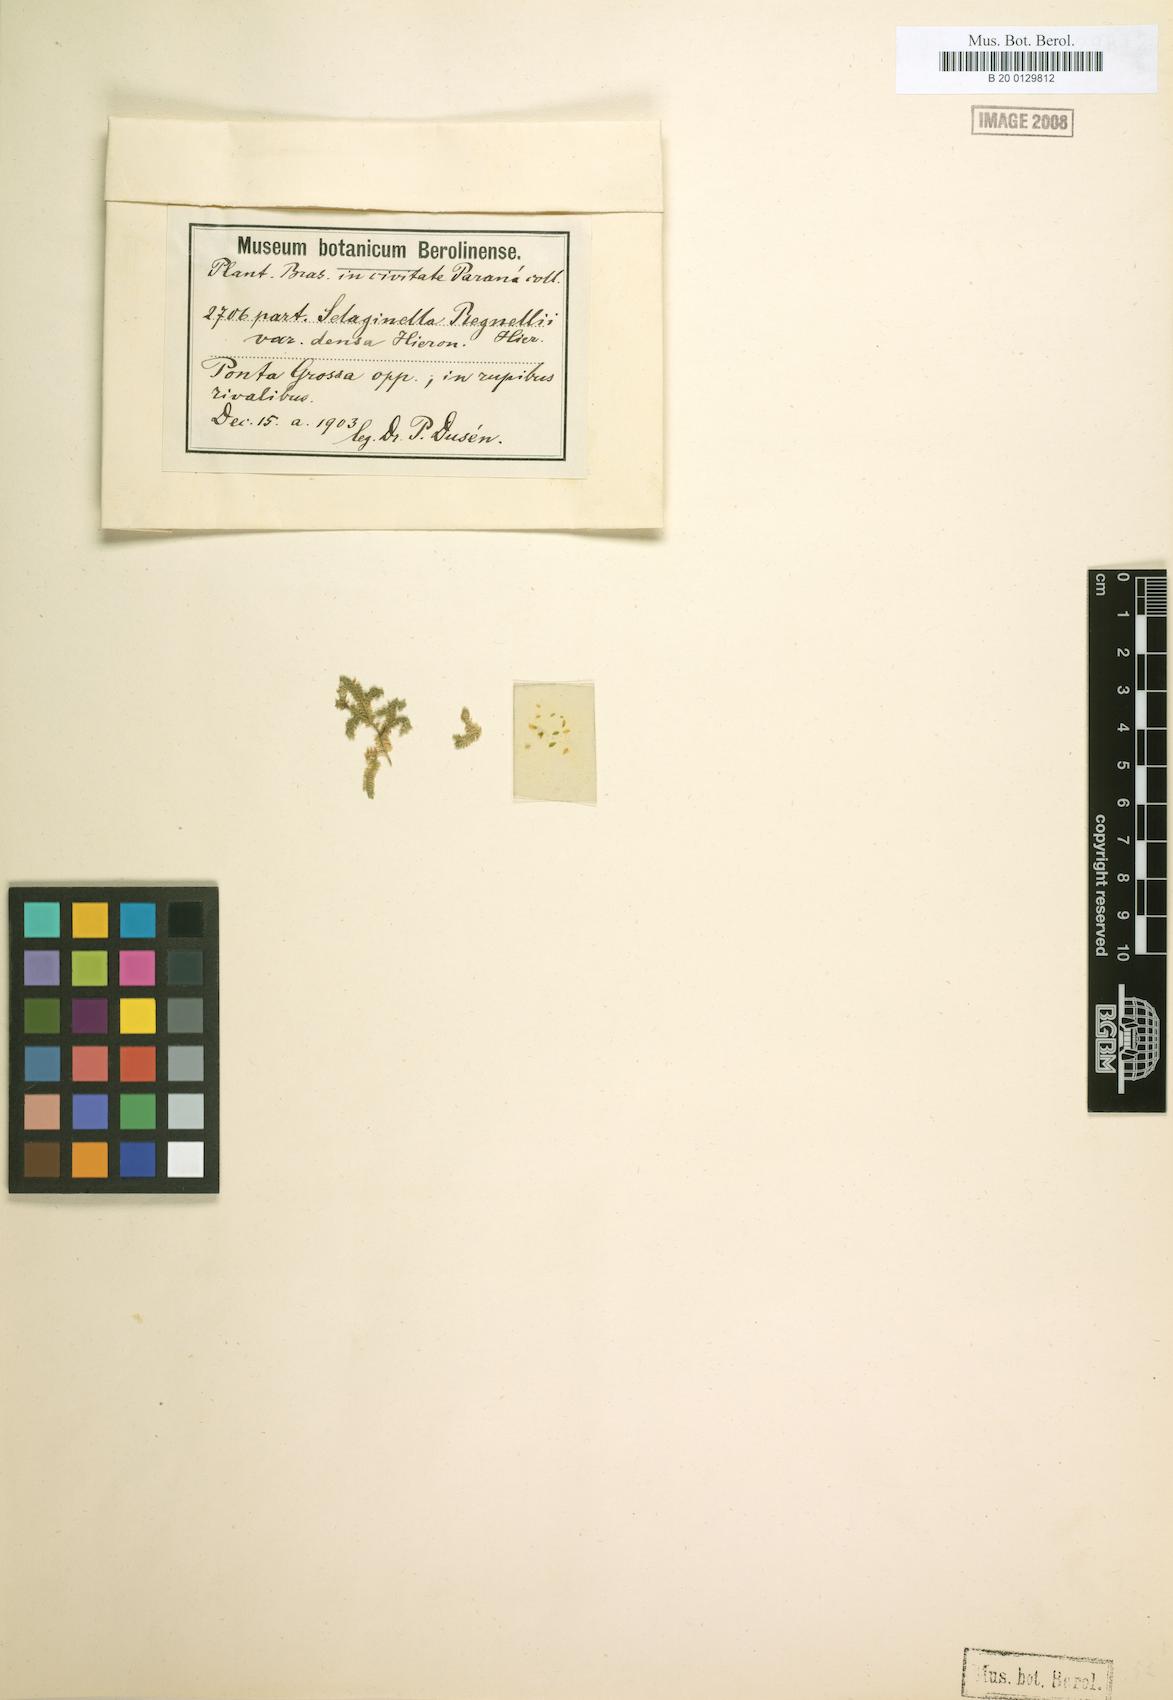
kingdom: Plantae
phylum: Tracheophyta
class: Lycopodiopsida
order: Selaginellales
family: Selaginellaceae
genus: Selaginella
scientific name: Selaginella
